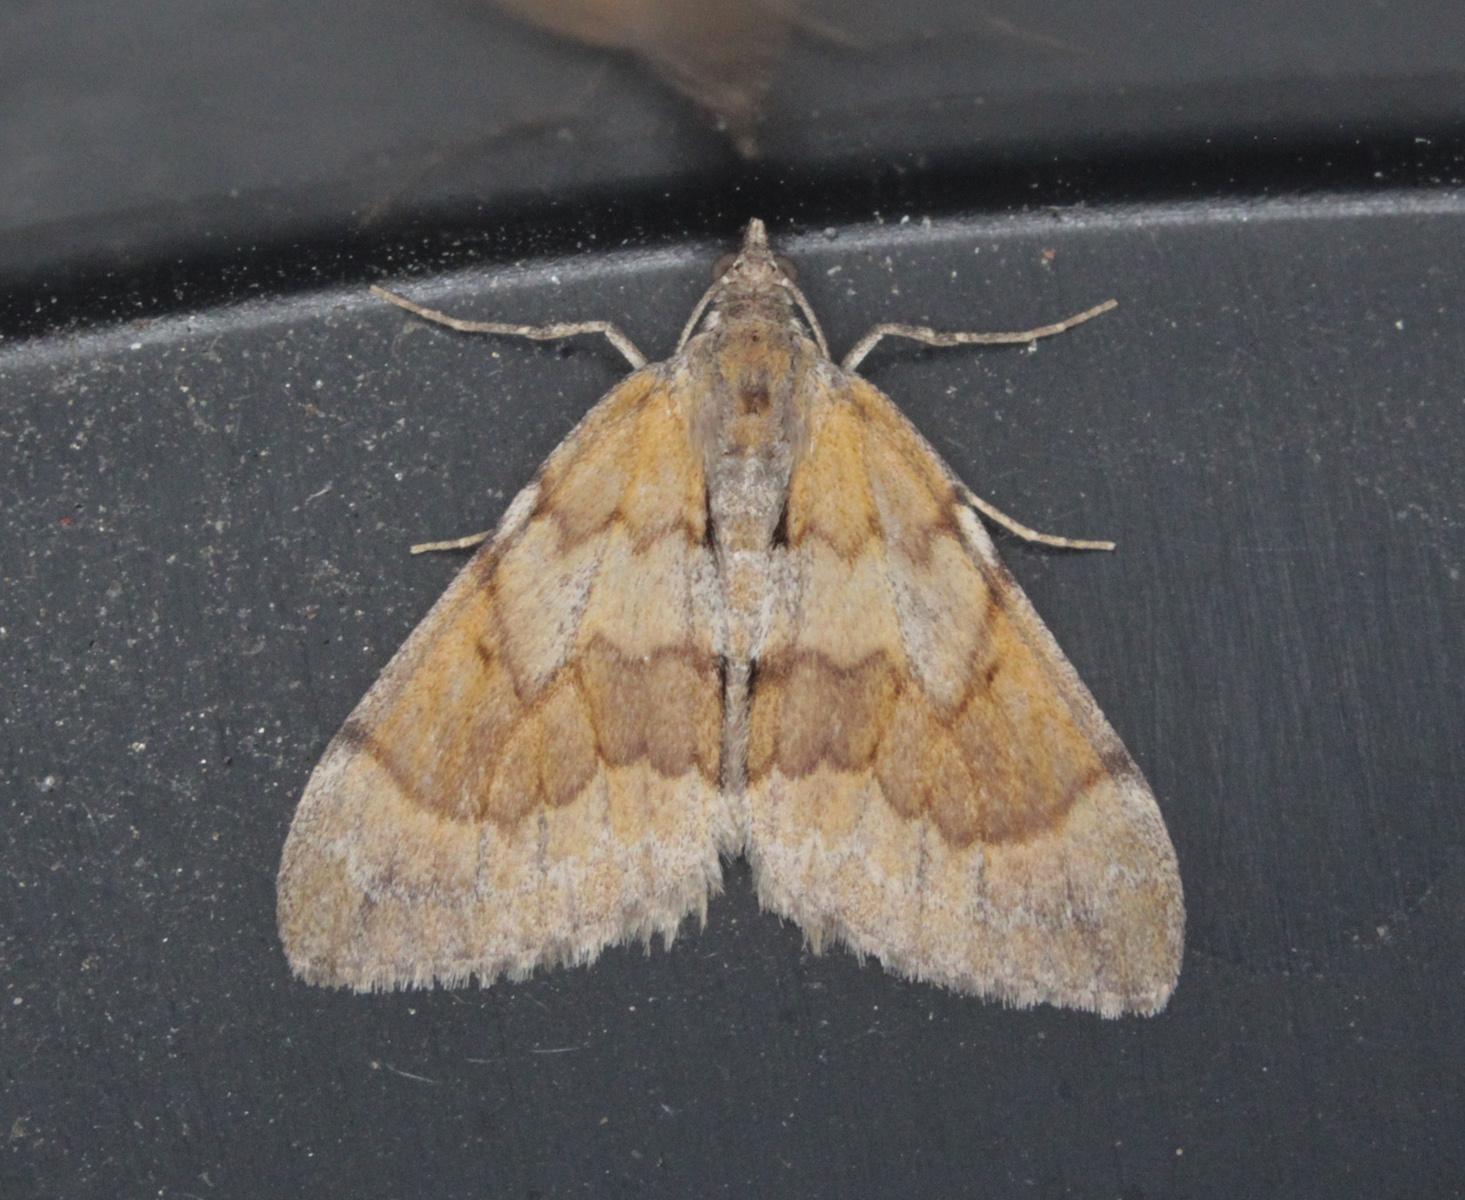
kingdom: Animalia
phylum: Arthropoda
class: Insecta
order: Lepidoptera
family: Geometridae
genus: Pennithera
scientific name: Pennithera firmata
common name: Pine carpet
